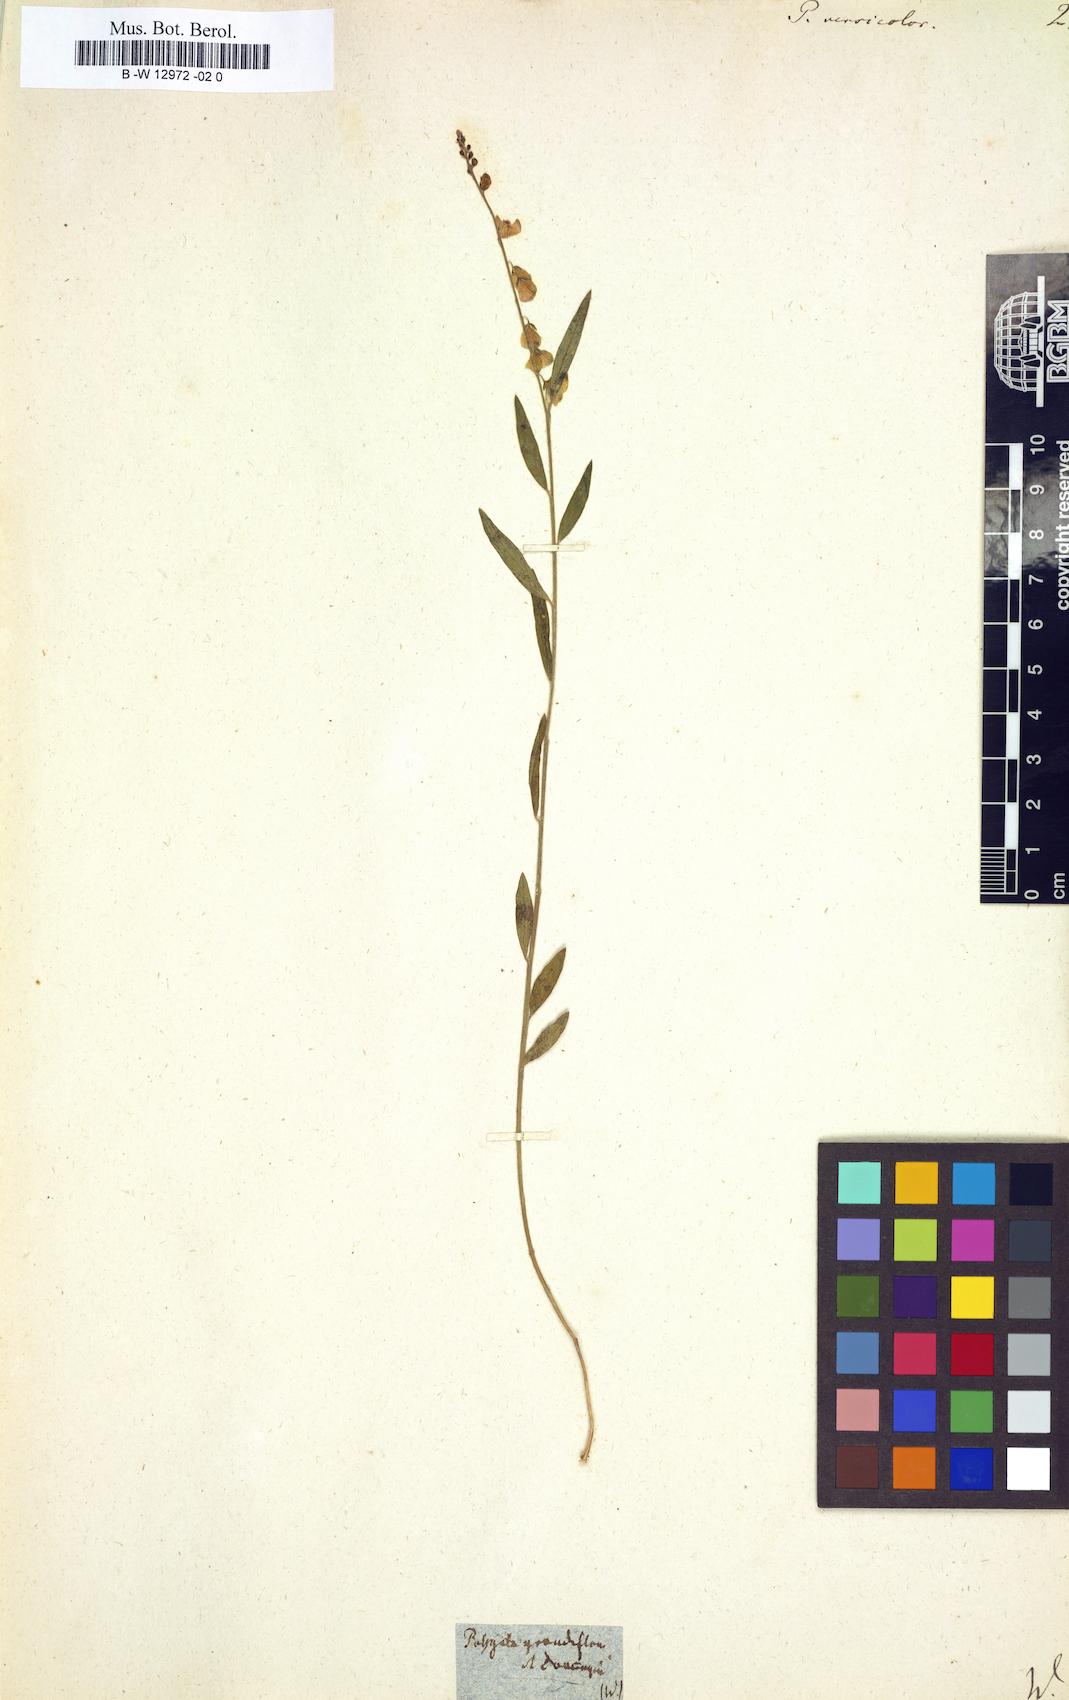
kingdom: Plantae
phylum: Tracheophyta
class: Magnoliopsida
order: Fabales
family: Polygalaceae
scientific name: Polygalaceae
